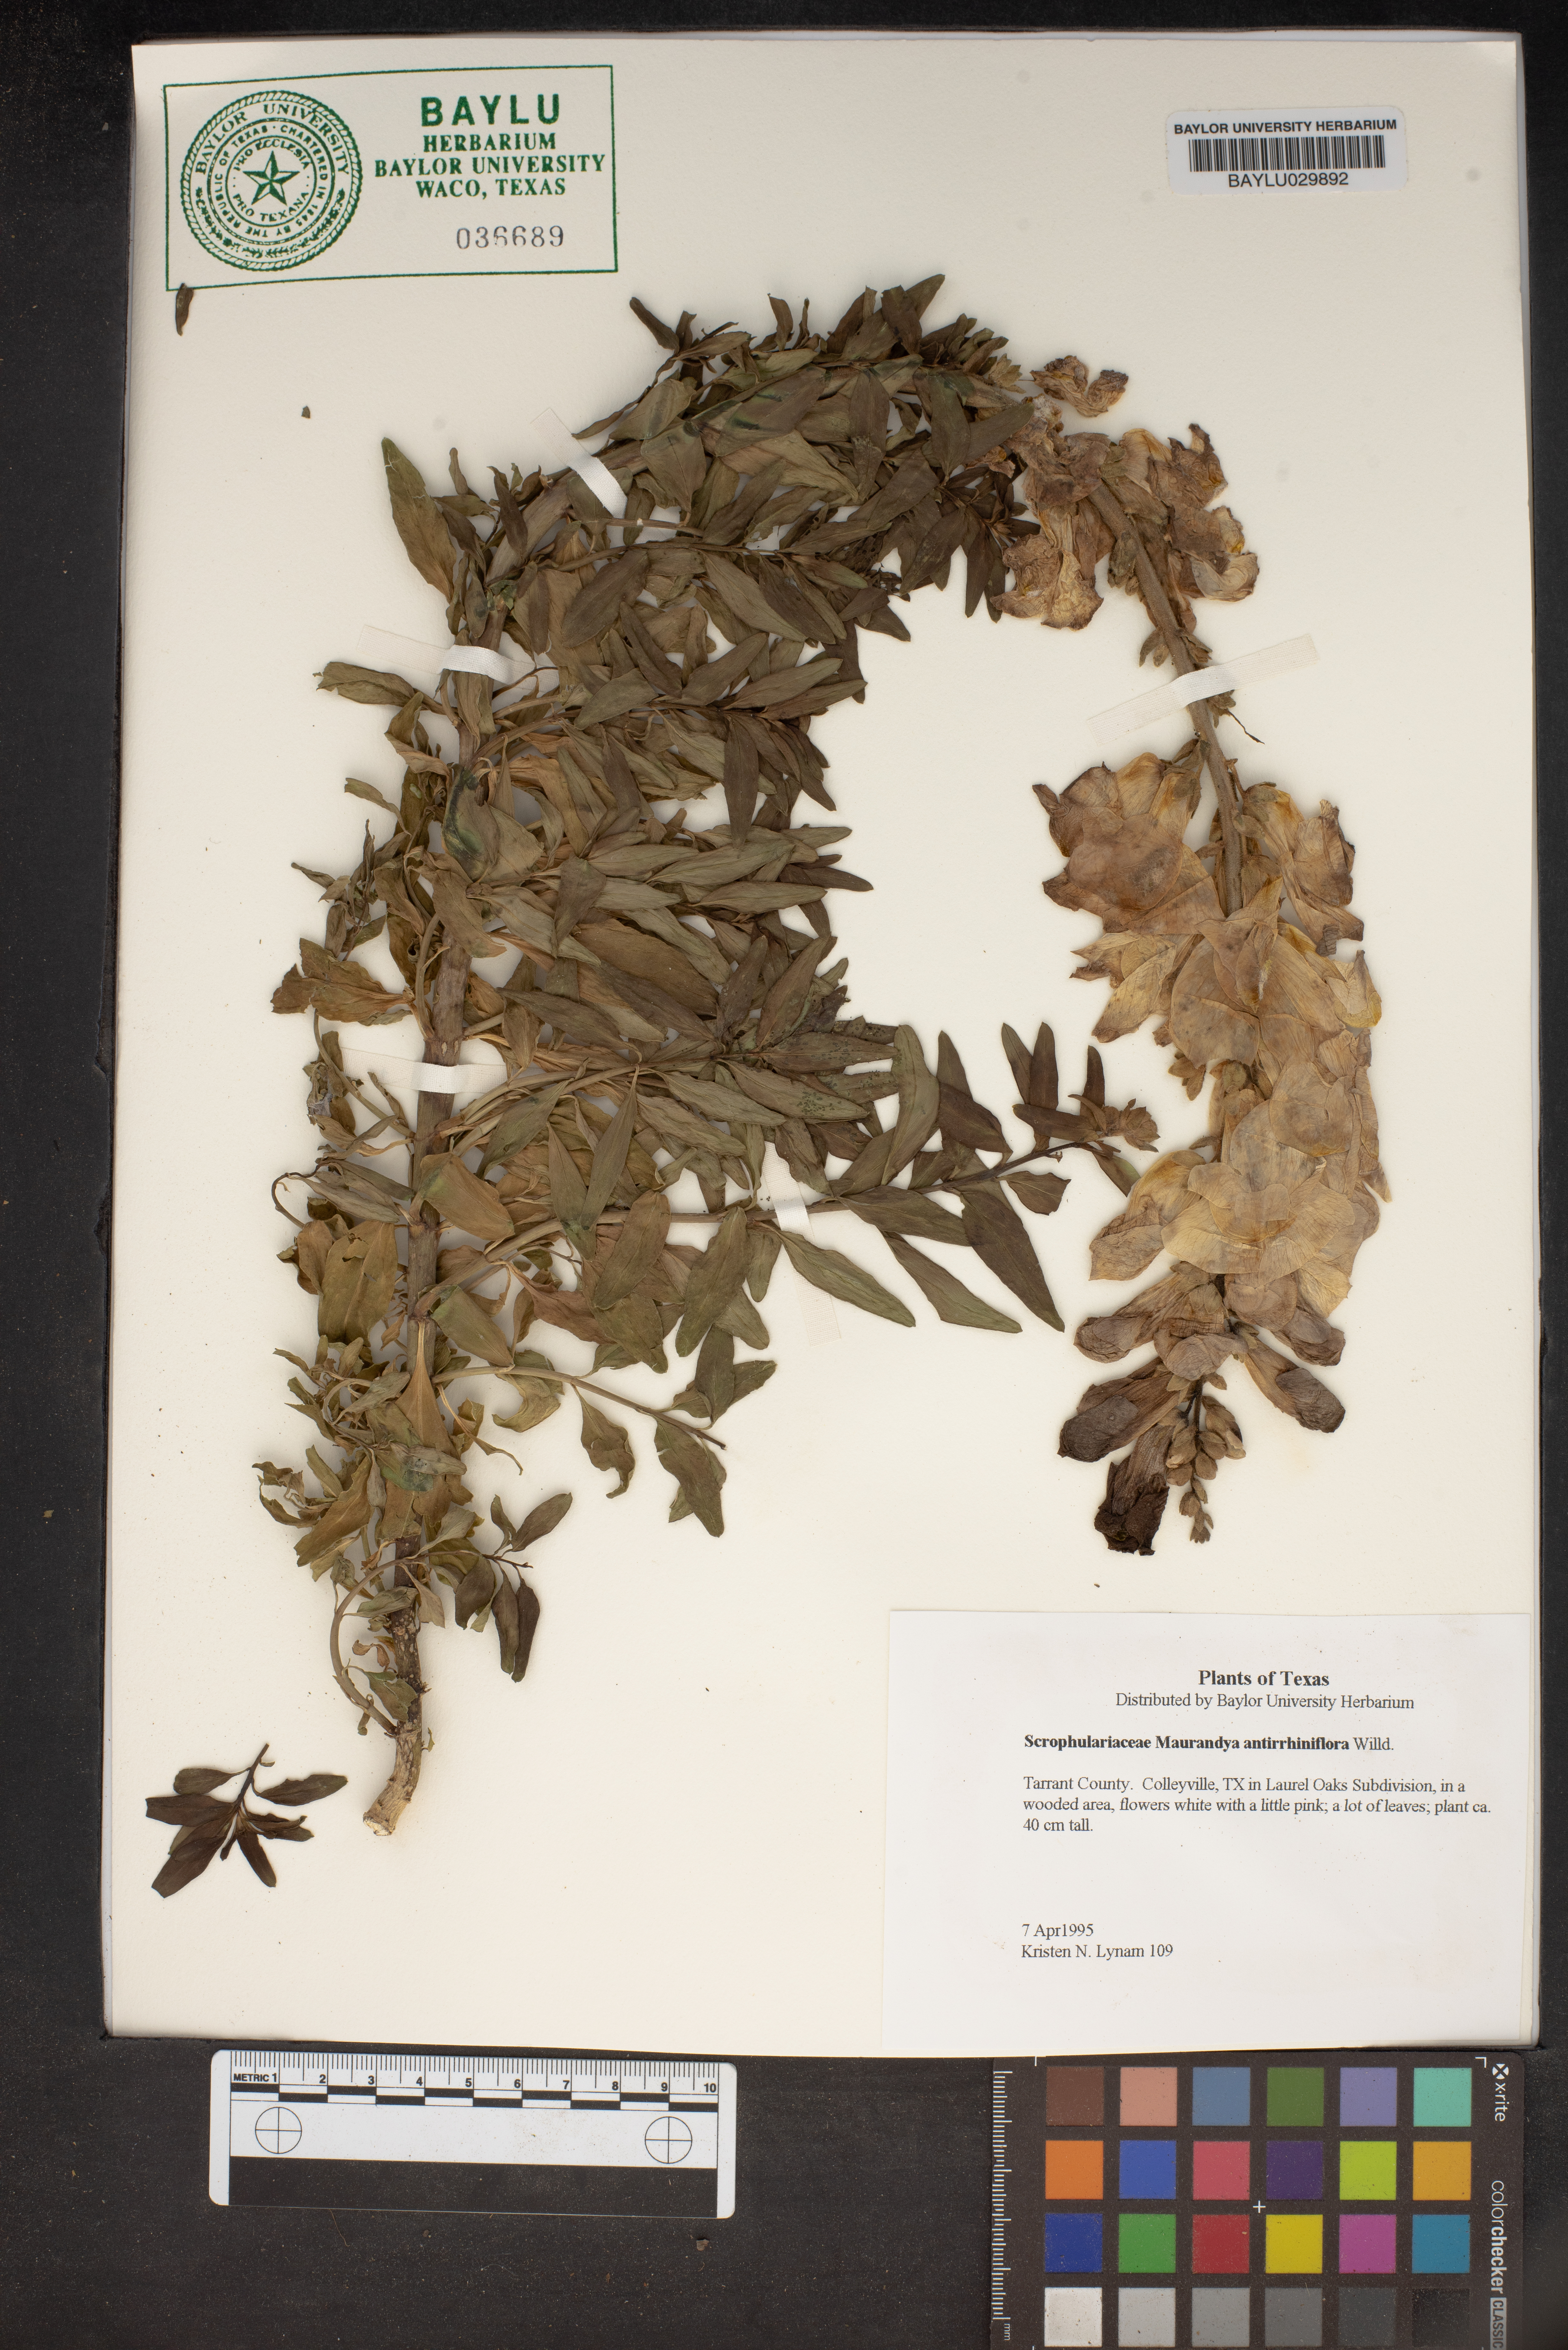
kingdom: Plantae
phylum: Tracheophyta
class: Magnoliopsida
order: Lamiales
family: Plantaginaceae
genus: Maurandella
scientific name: Maurandella antirrhiniflora
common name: Violet twining-snapdragon
